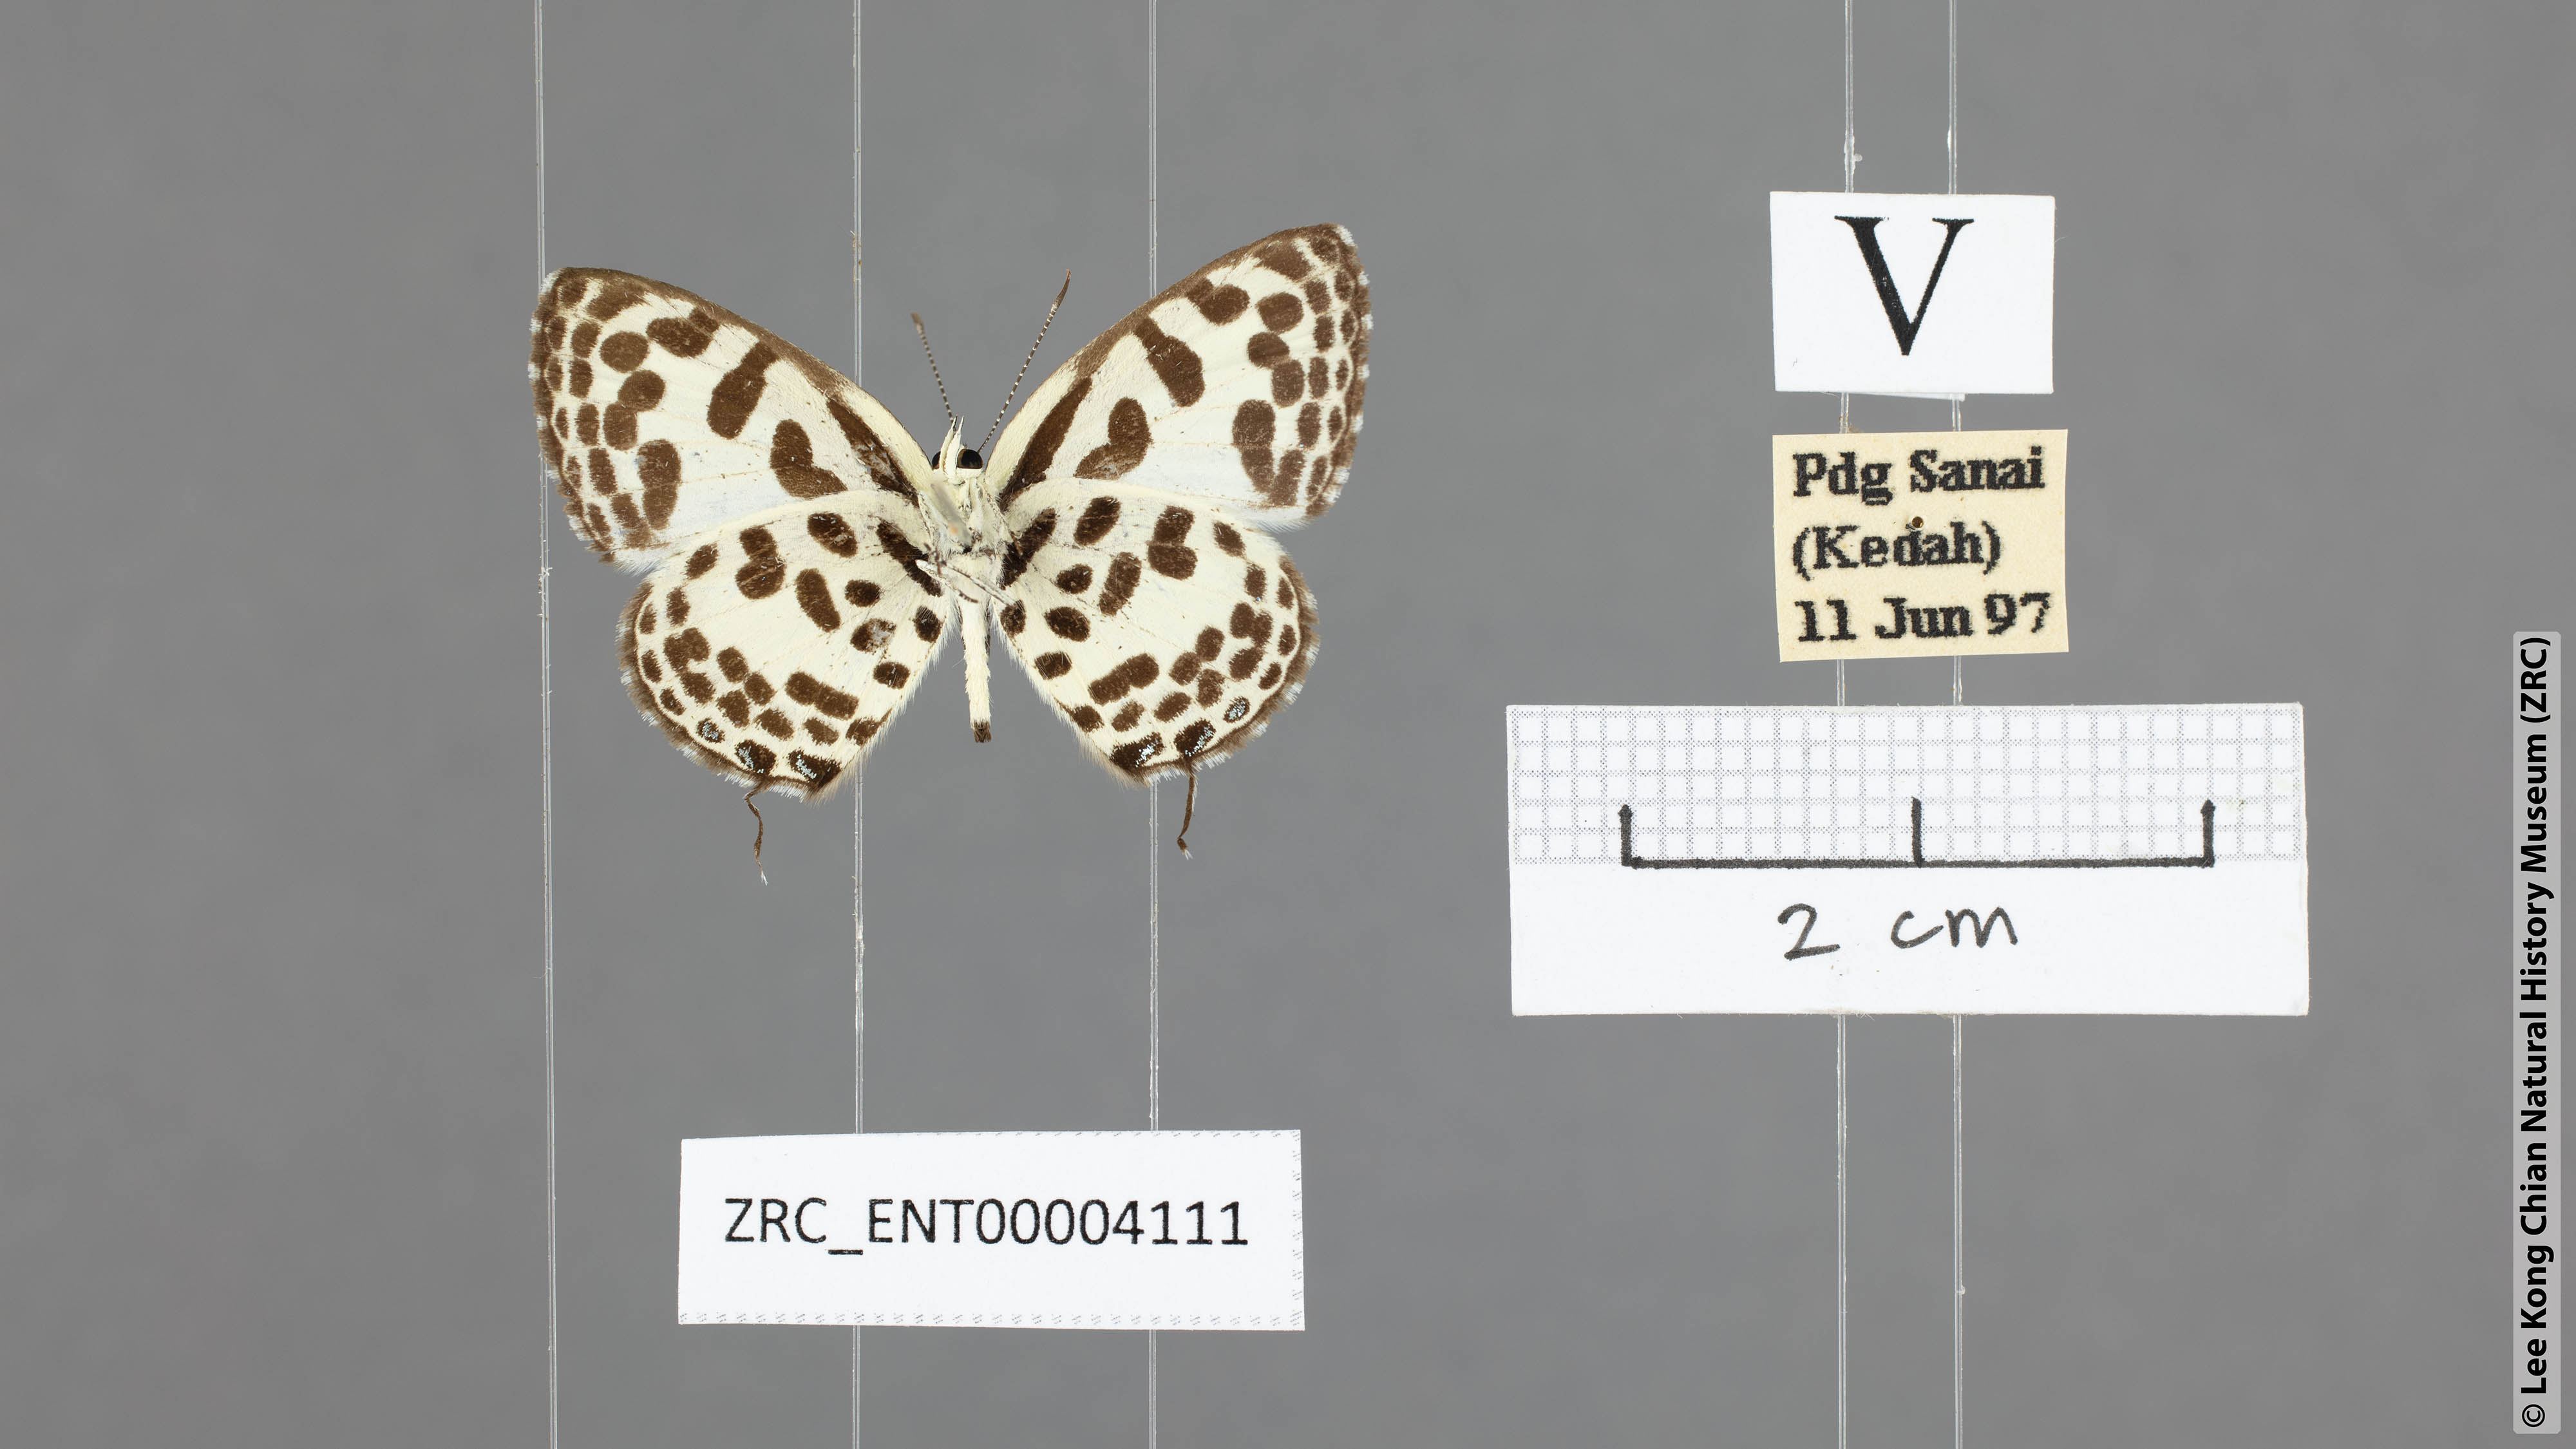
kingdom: Animalia
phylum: Arthropoda
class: Insecta
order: Lepidoptera
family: Lycaenidae
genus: Castalius
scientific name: Castalius rosimon
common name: Common pierrot
